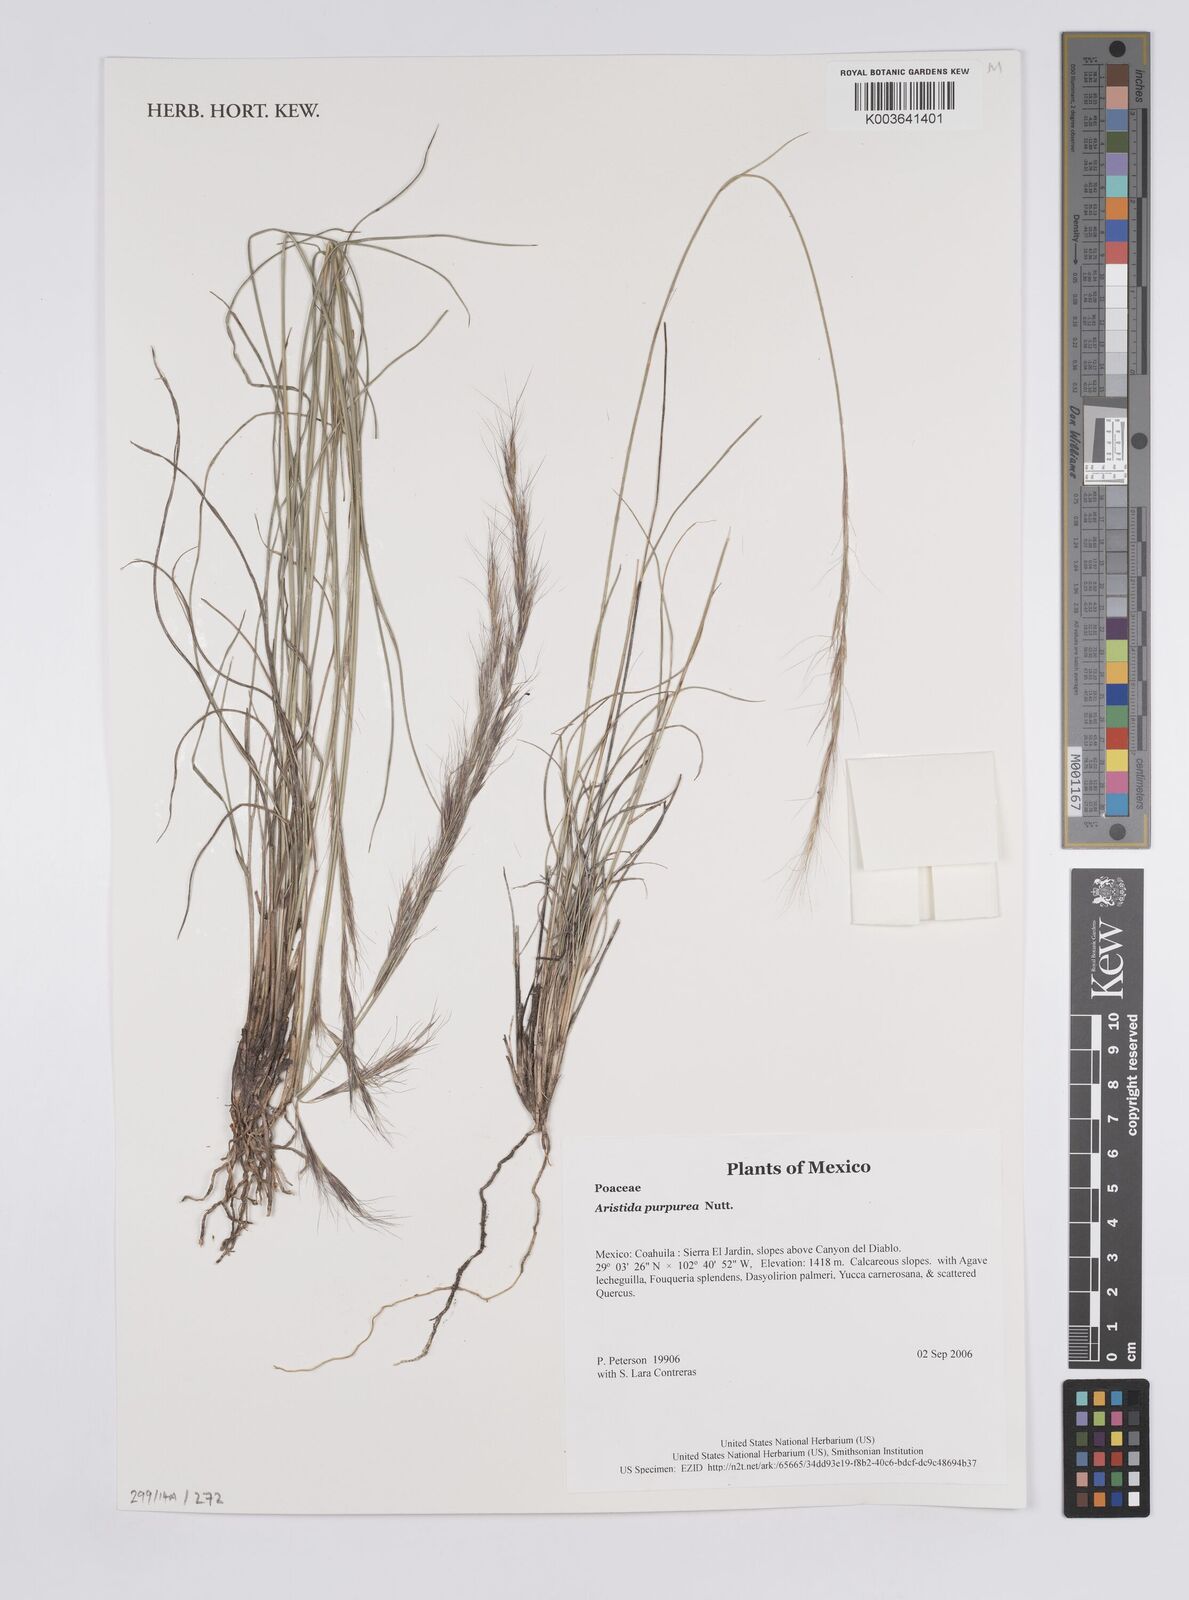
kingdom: Plantae
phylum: Tracheophyta
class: Liliopsida
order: Poales
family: Poaceae
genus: Aristida
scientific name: Aristida purpurea
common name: Purple threeawn
